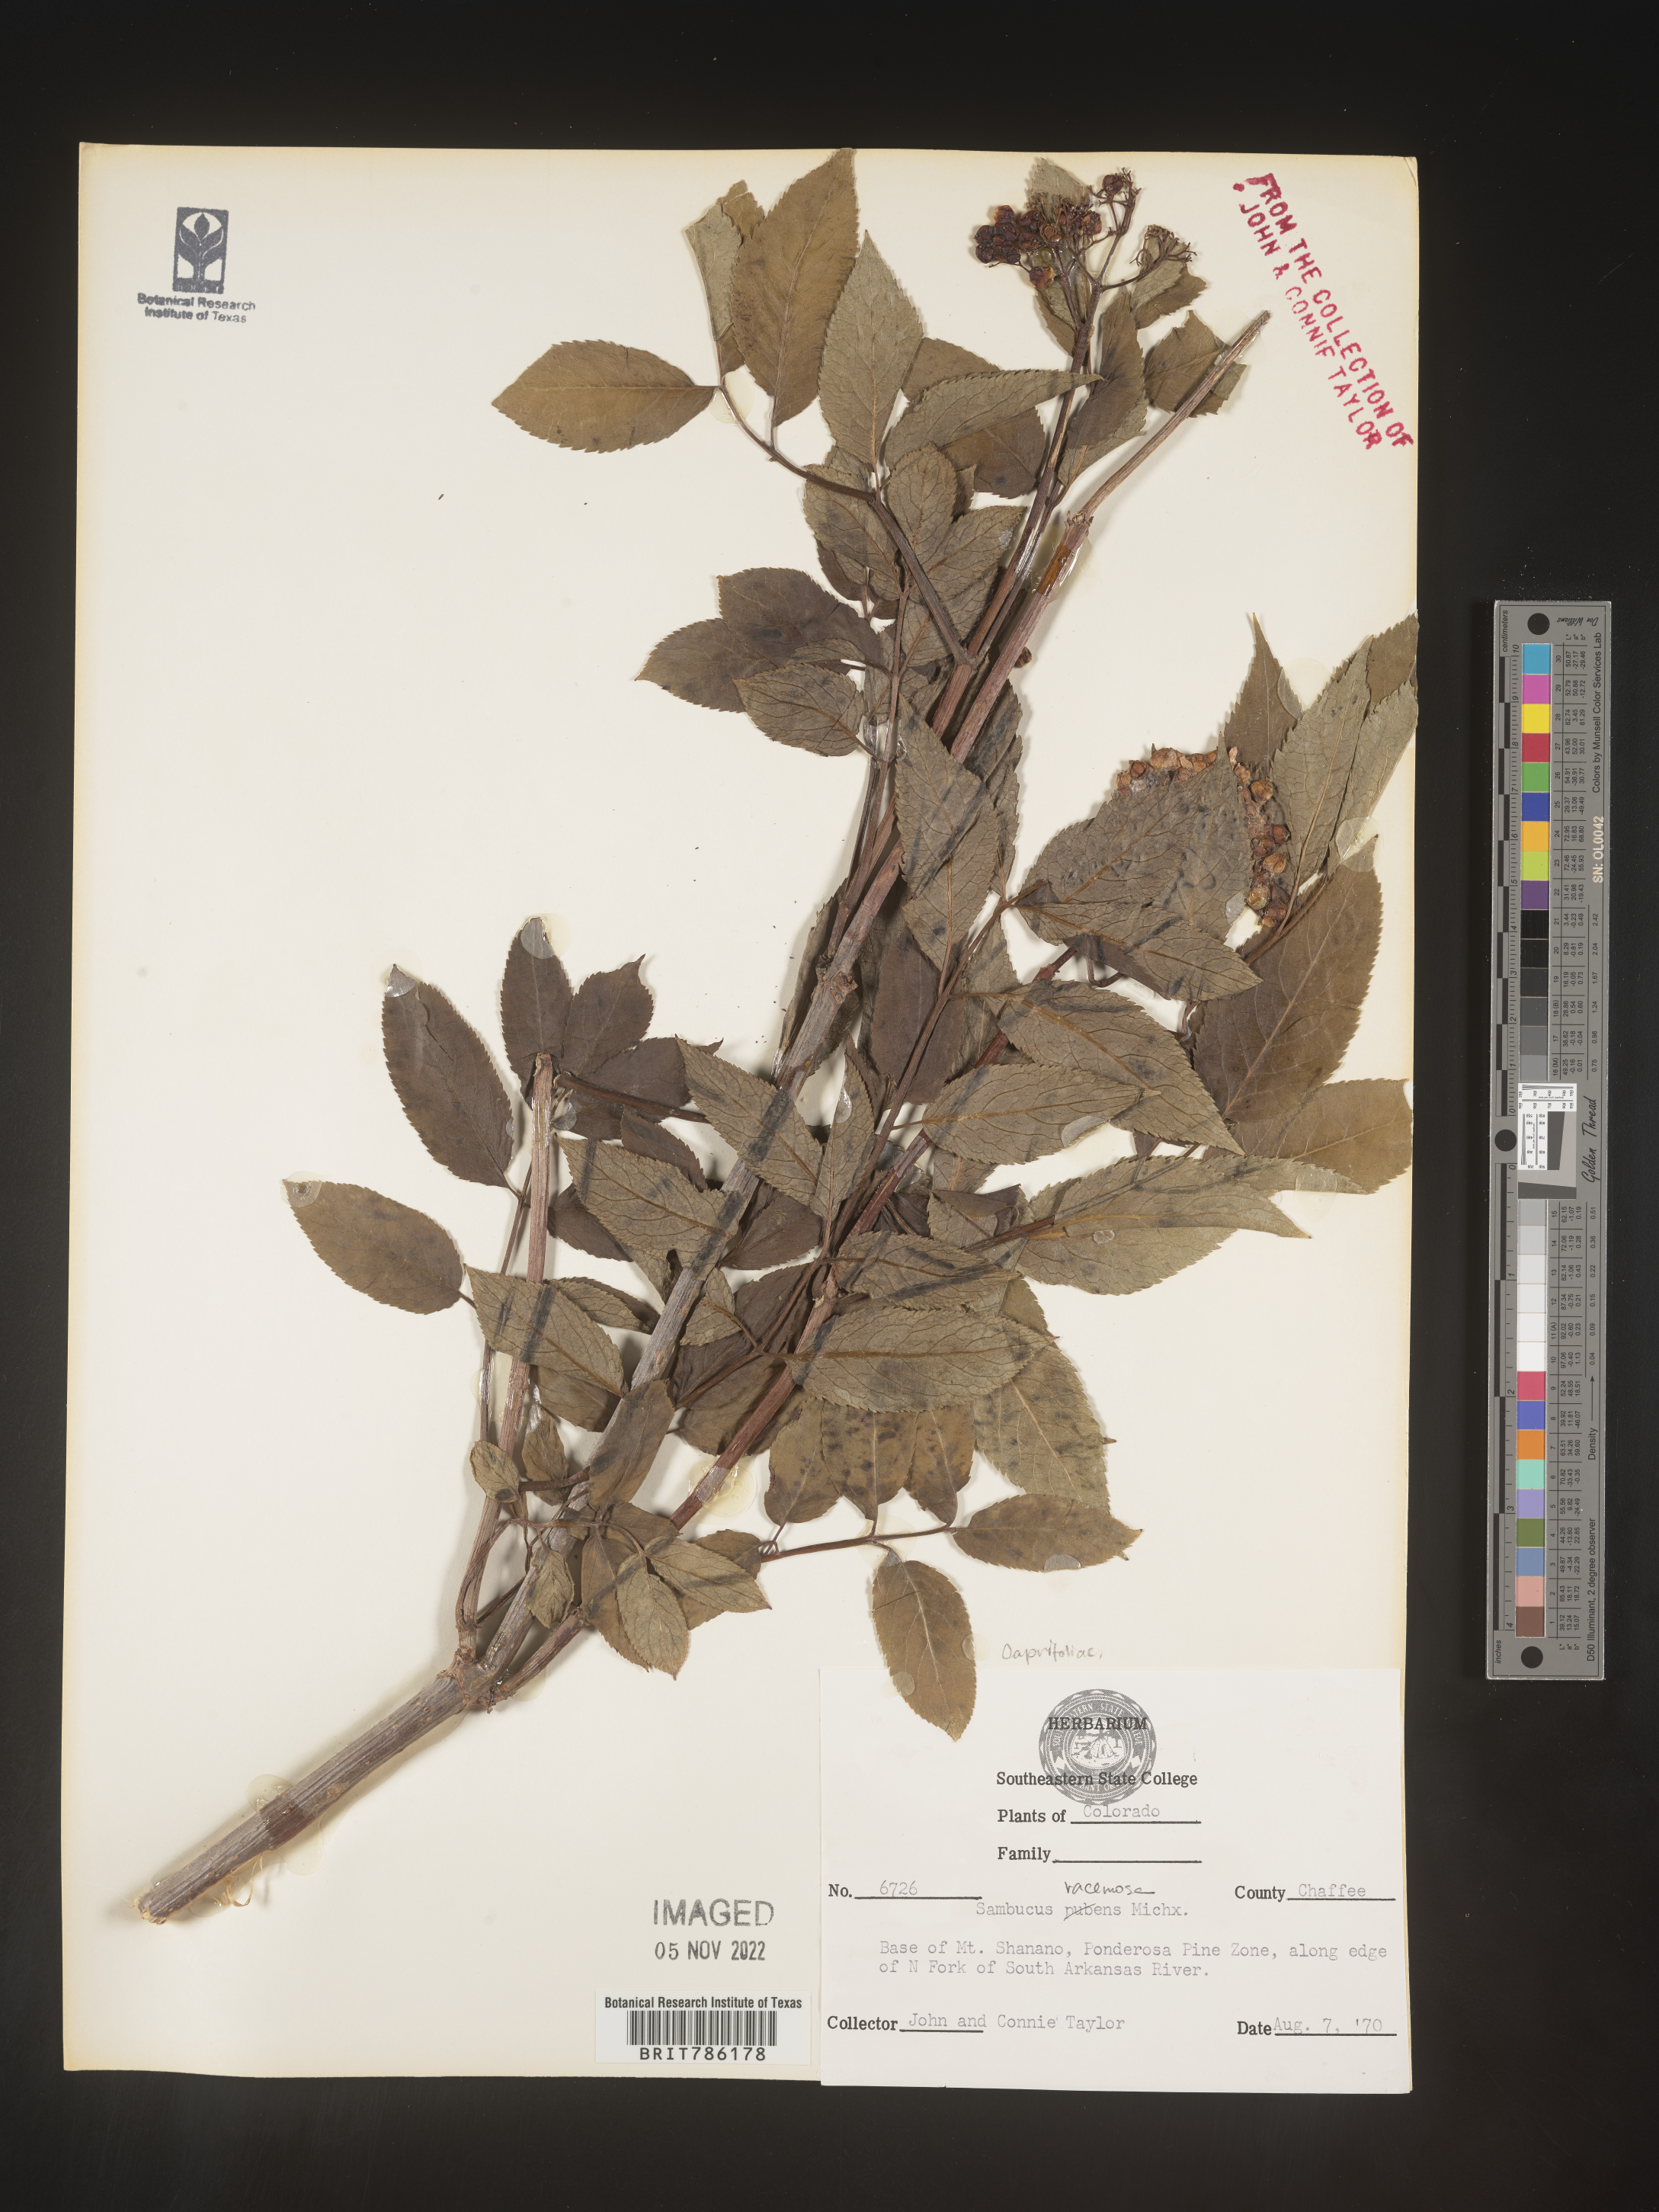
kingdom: Plantae
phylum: Tracheophyta
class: Magnoliopsida
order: Dipsacales
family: Viburnaceae
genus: Sambucus
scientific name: Sambucus
